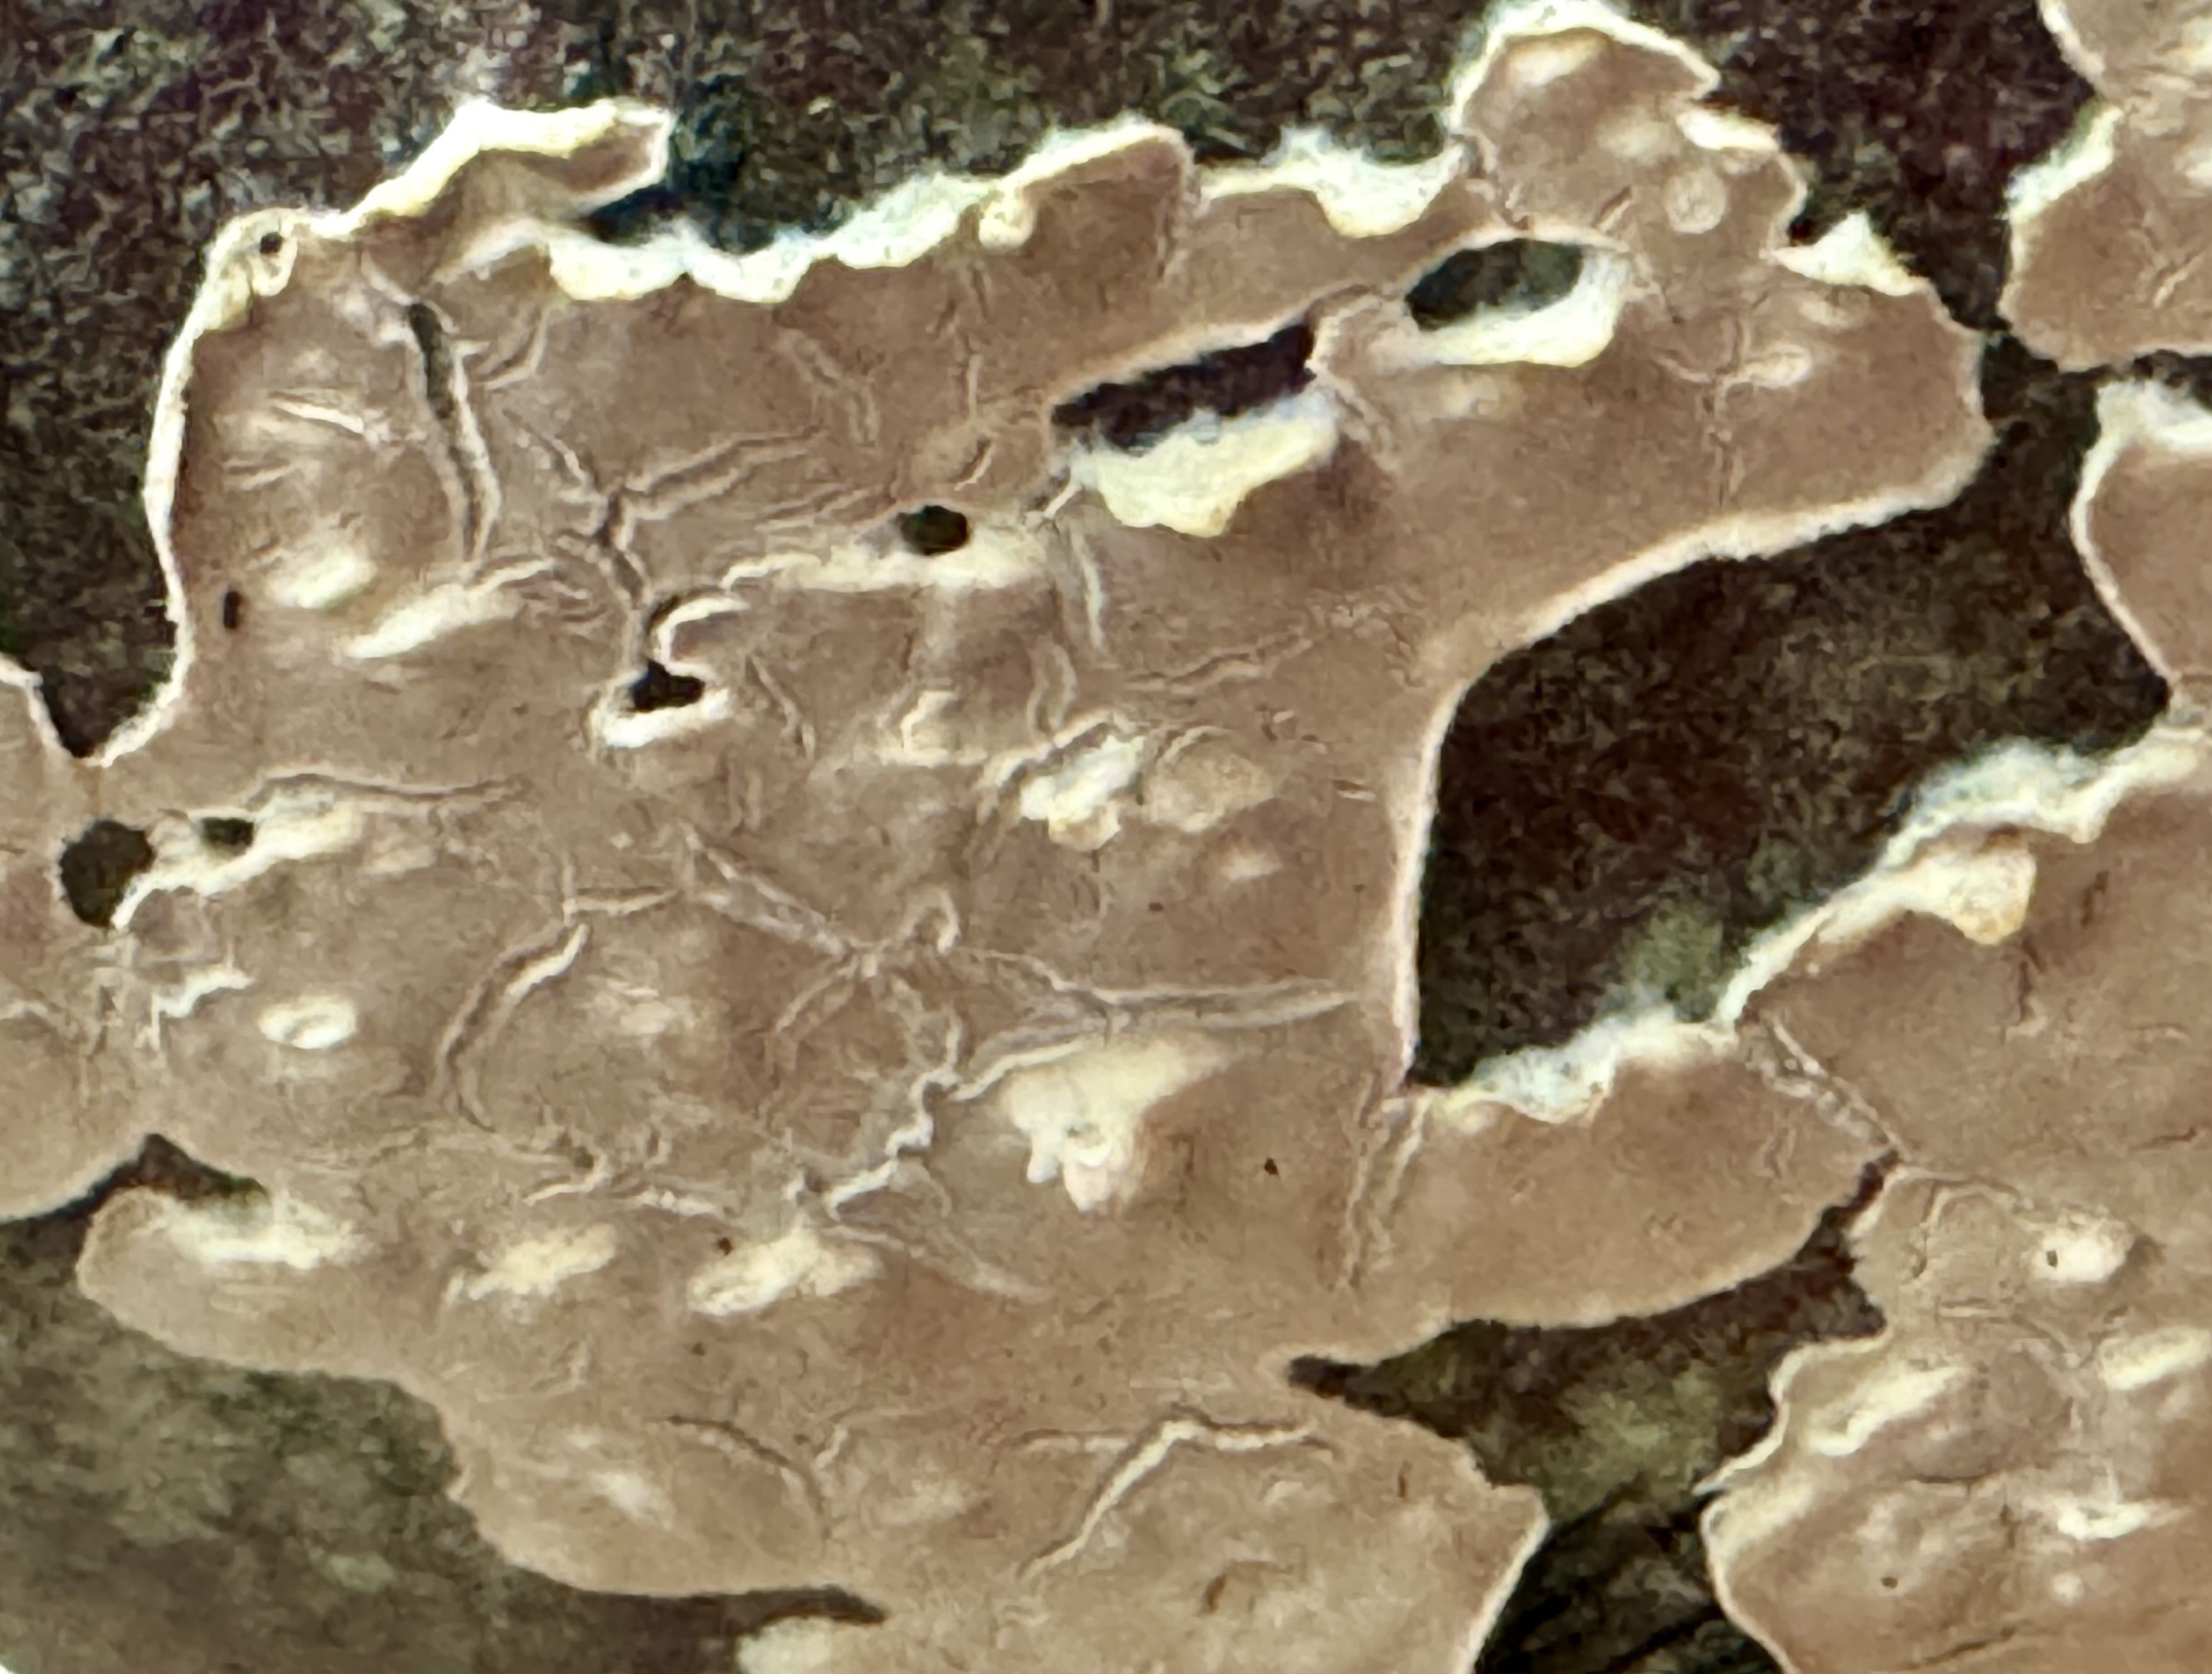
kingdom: Fungi
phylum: Basidiomycota
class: Agaricomycetes
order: Agaricales
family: Physalacriaceae
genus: Cylindrobasidium
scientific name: Cylindrobasidium evolvens
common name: sprækkehinde
